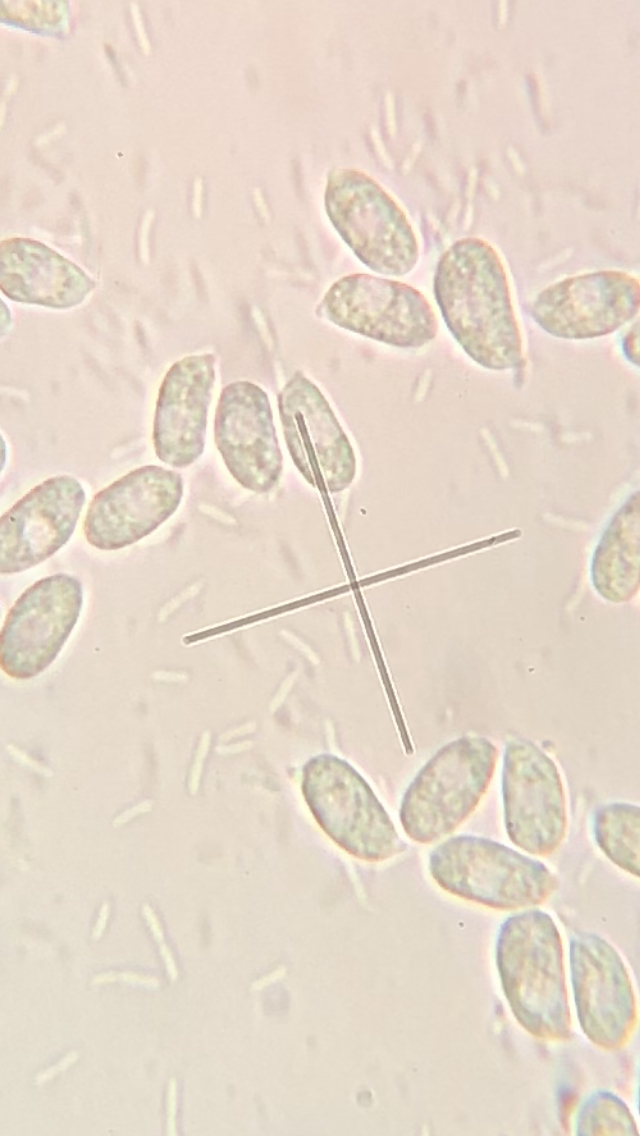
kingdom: Fungi
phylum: Basidiomycota
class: Agaricomycetes
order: Agaricales
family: Mycenaceae
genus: Atheniella
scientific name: Atheniella
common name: huesvamp
